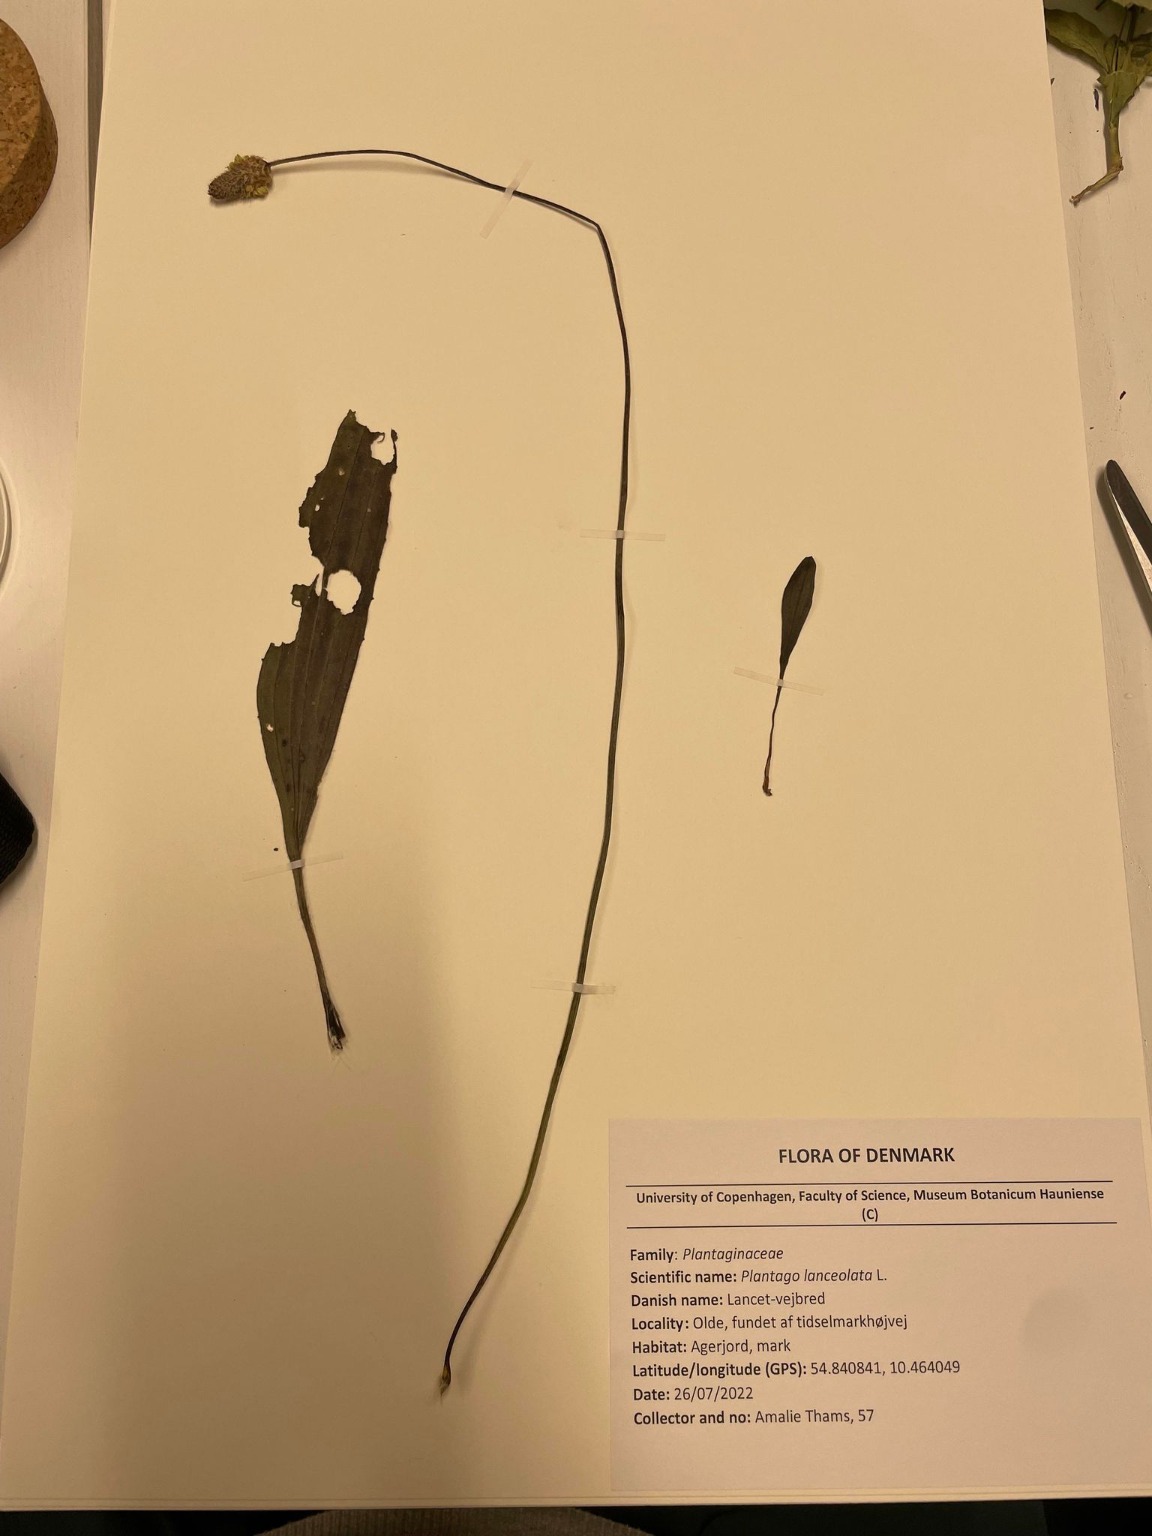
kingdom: Plantae
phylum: Tracheophyta
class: Magnoliopsida
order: Lamiales
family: Plantaginaceae
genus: Plantago
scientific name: Plantago lanceolata
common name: Lancet-vejbred
